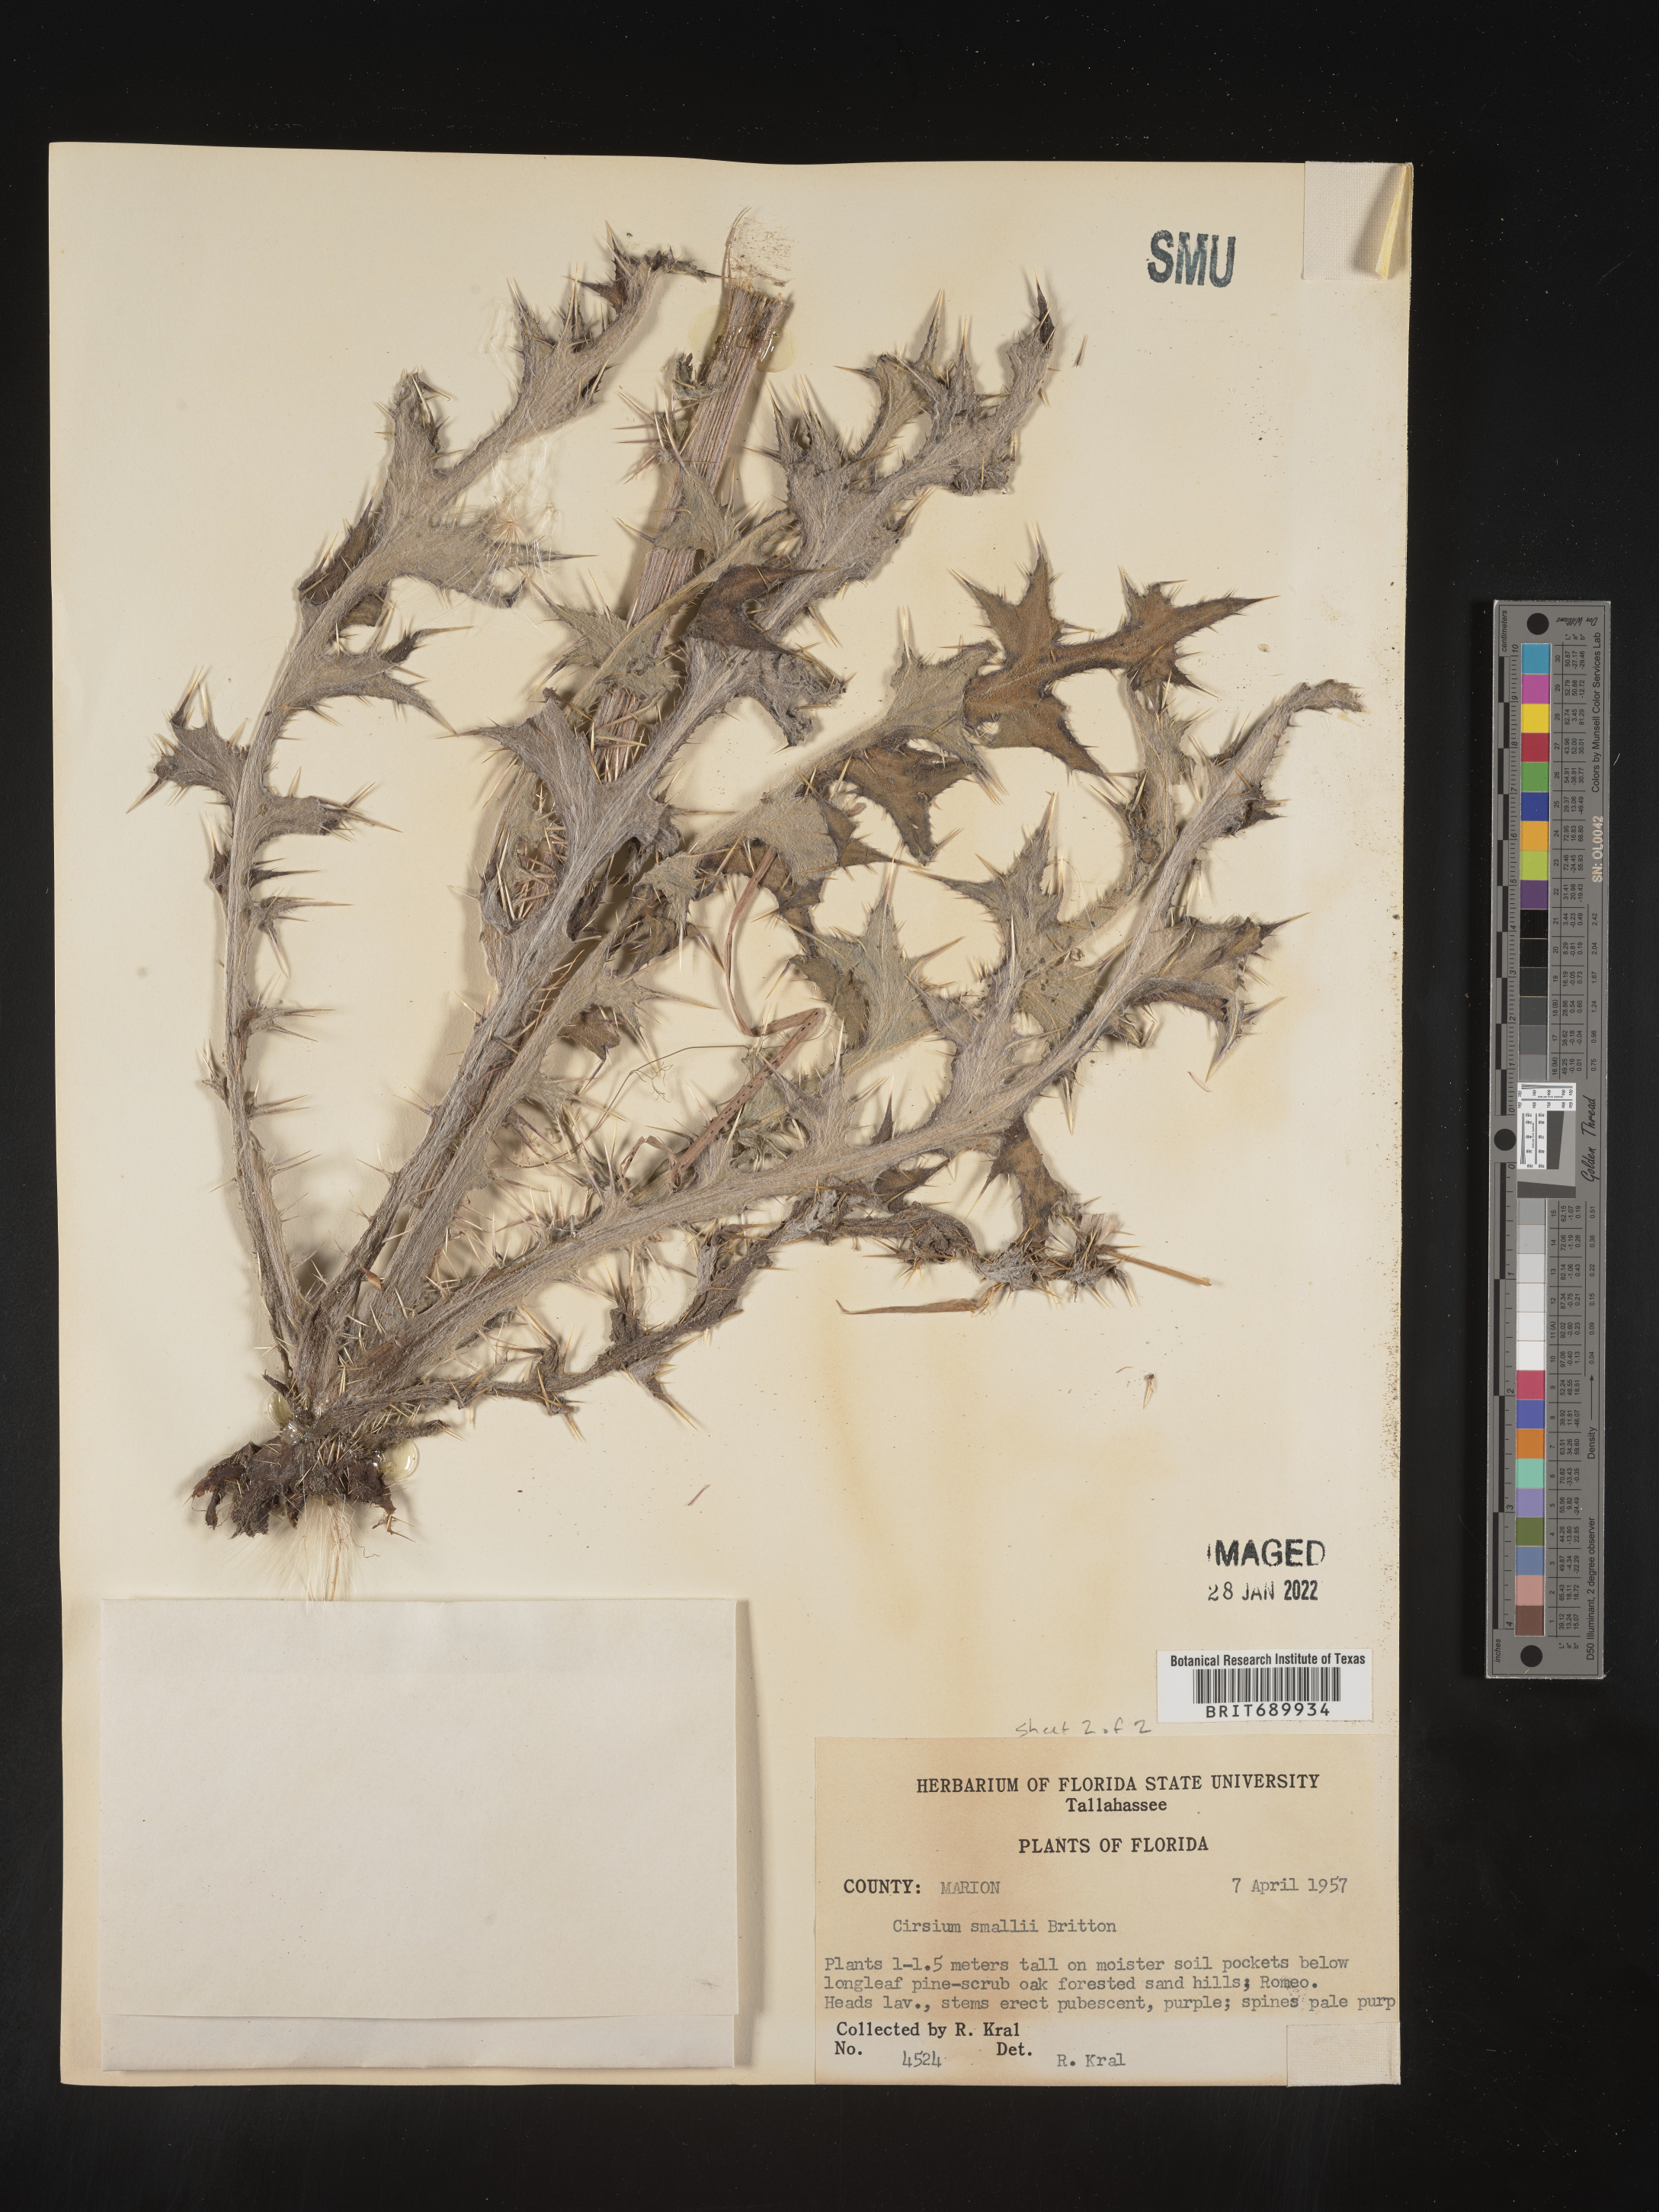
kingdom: Plantae
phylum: Tracheophyta
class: Magnoliopsida
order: Asterales
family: Asteraceae
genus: Cirsium
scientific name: Cirsium horridulum
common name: Bristly thistle
